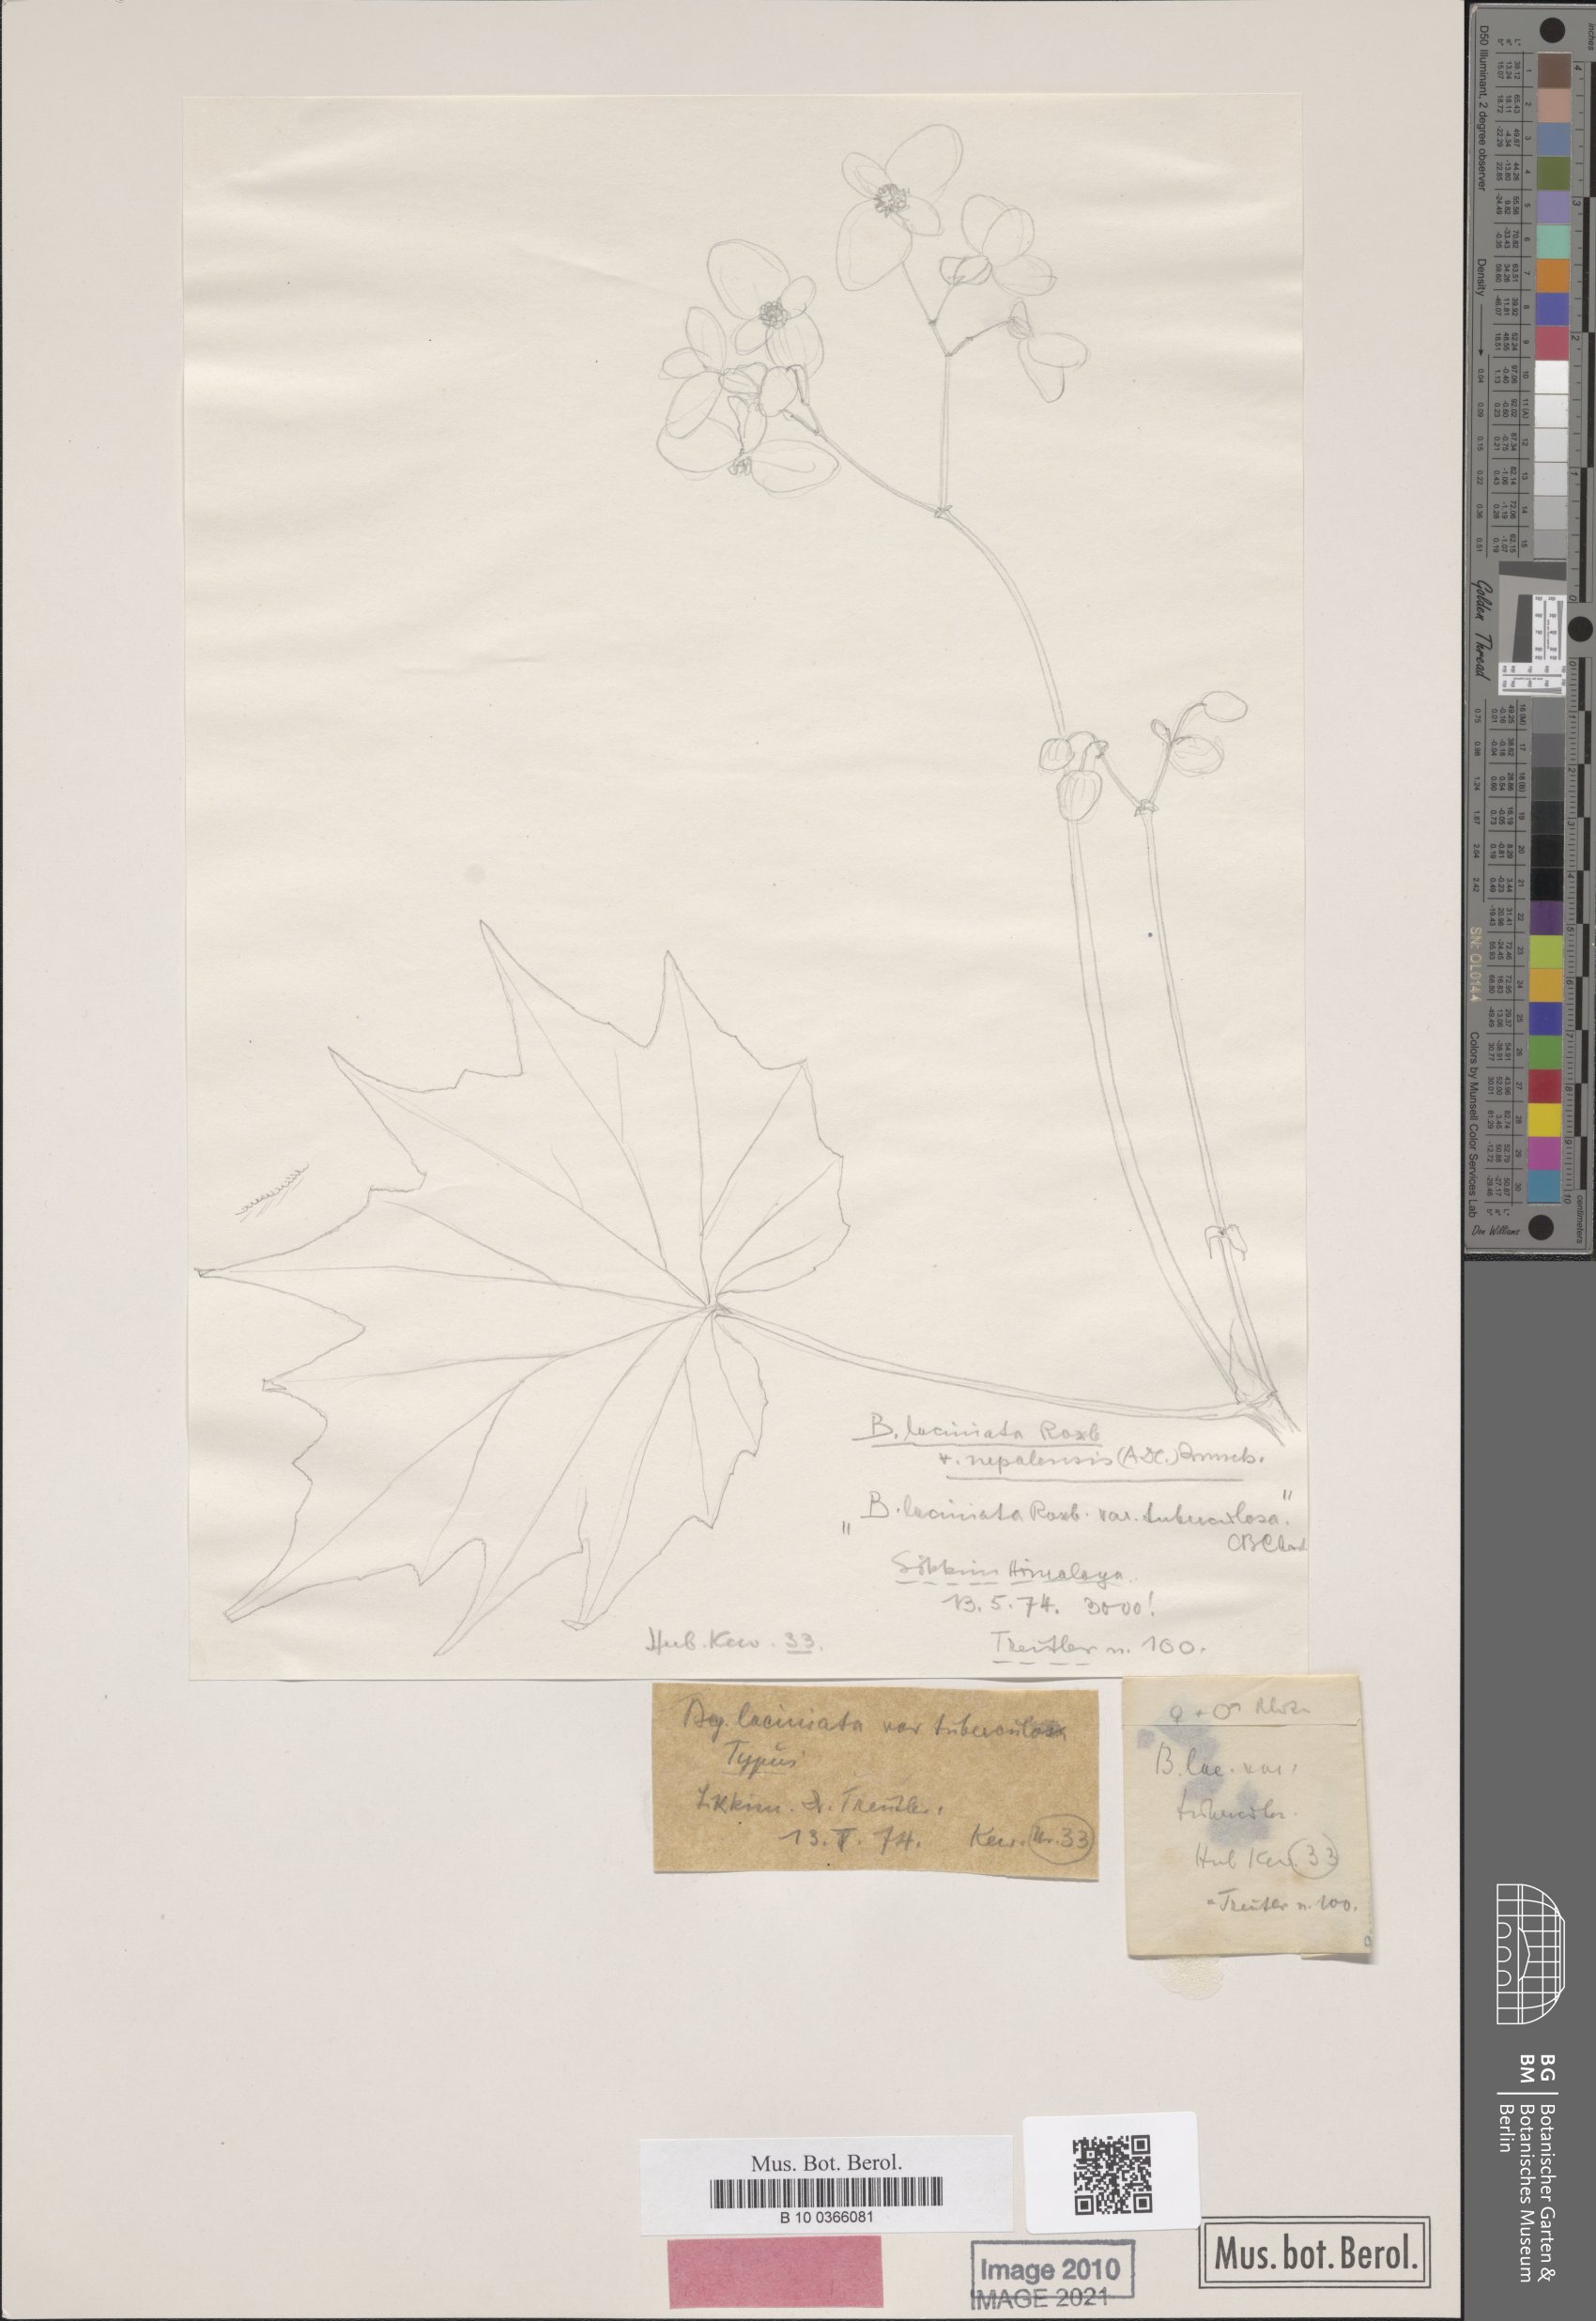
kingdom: Plantae
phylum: Tracheophyta
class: Magnoliopsida
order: Cucurbitales
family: Begoniaceae
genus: Begonia
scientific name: Begonia palmata
